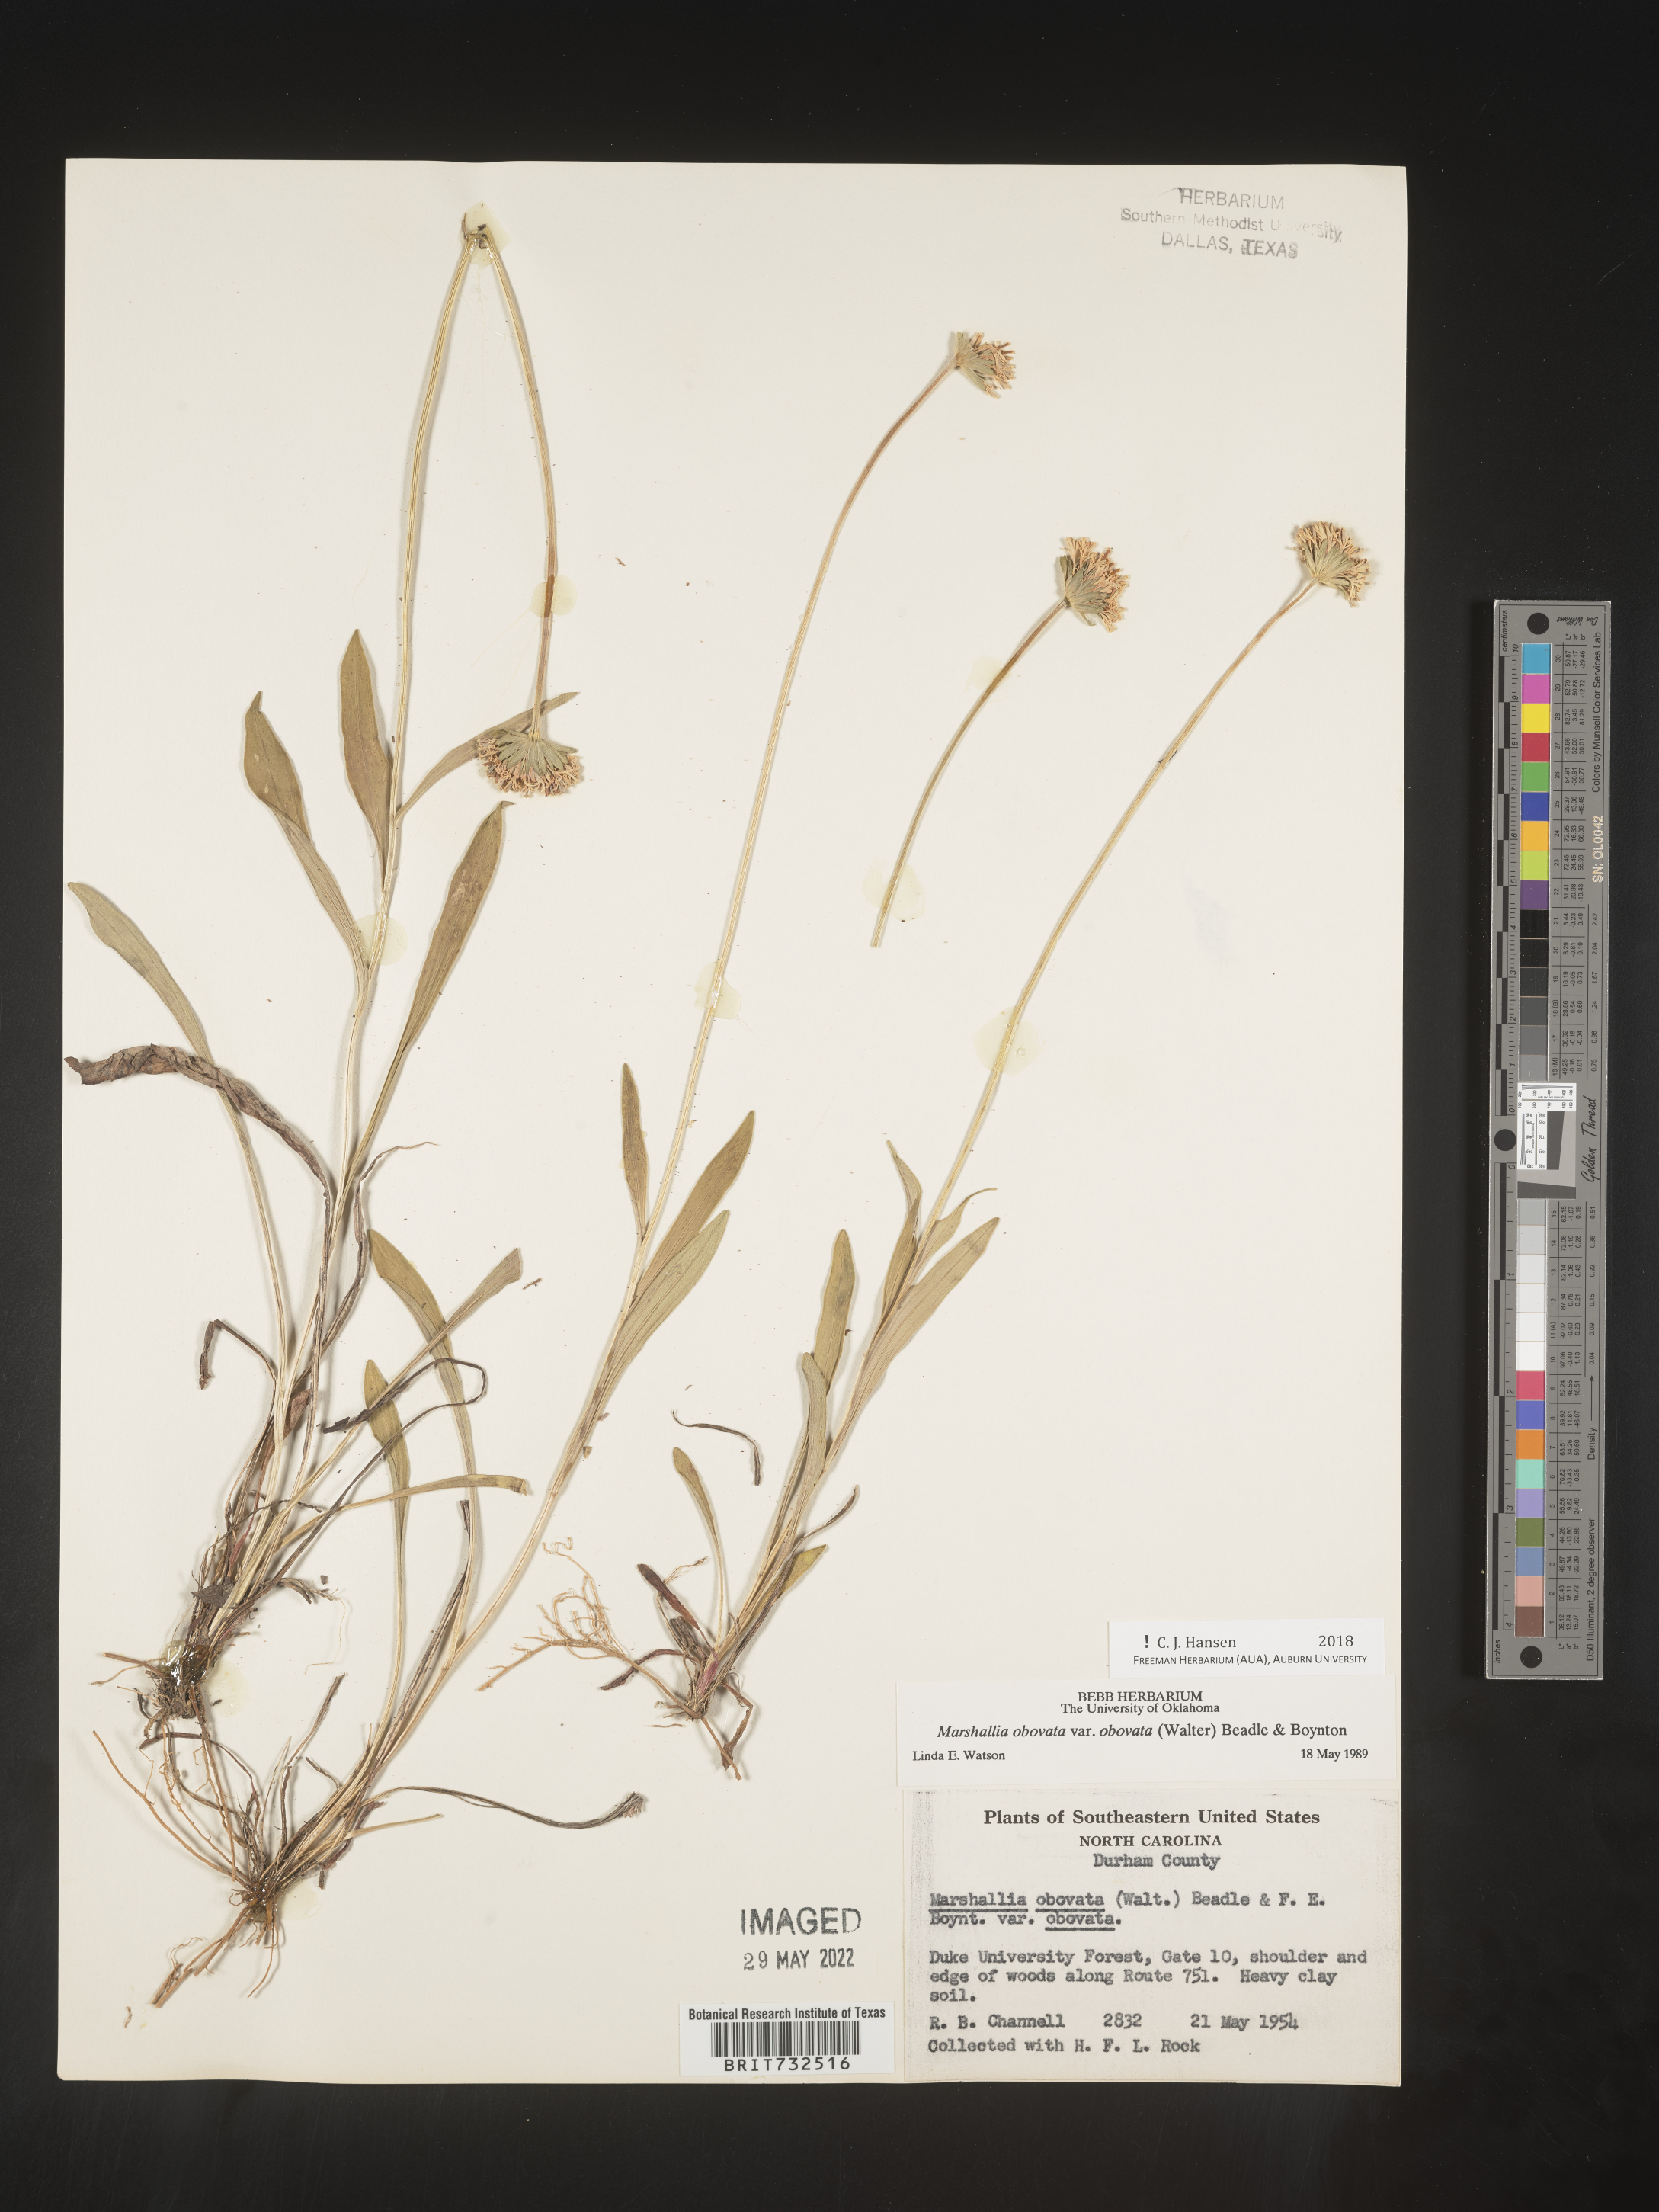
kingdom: Plantae
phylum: Tracheophyta
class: Magnoliopsida
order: Asterales
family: Asteraceae
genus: Marshallia
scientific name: Marshallia obovata
